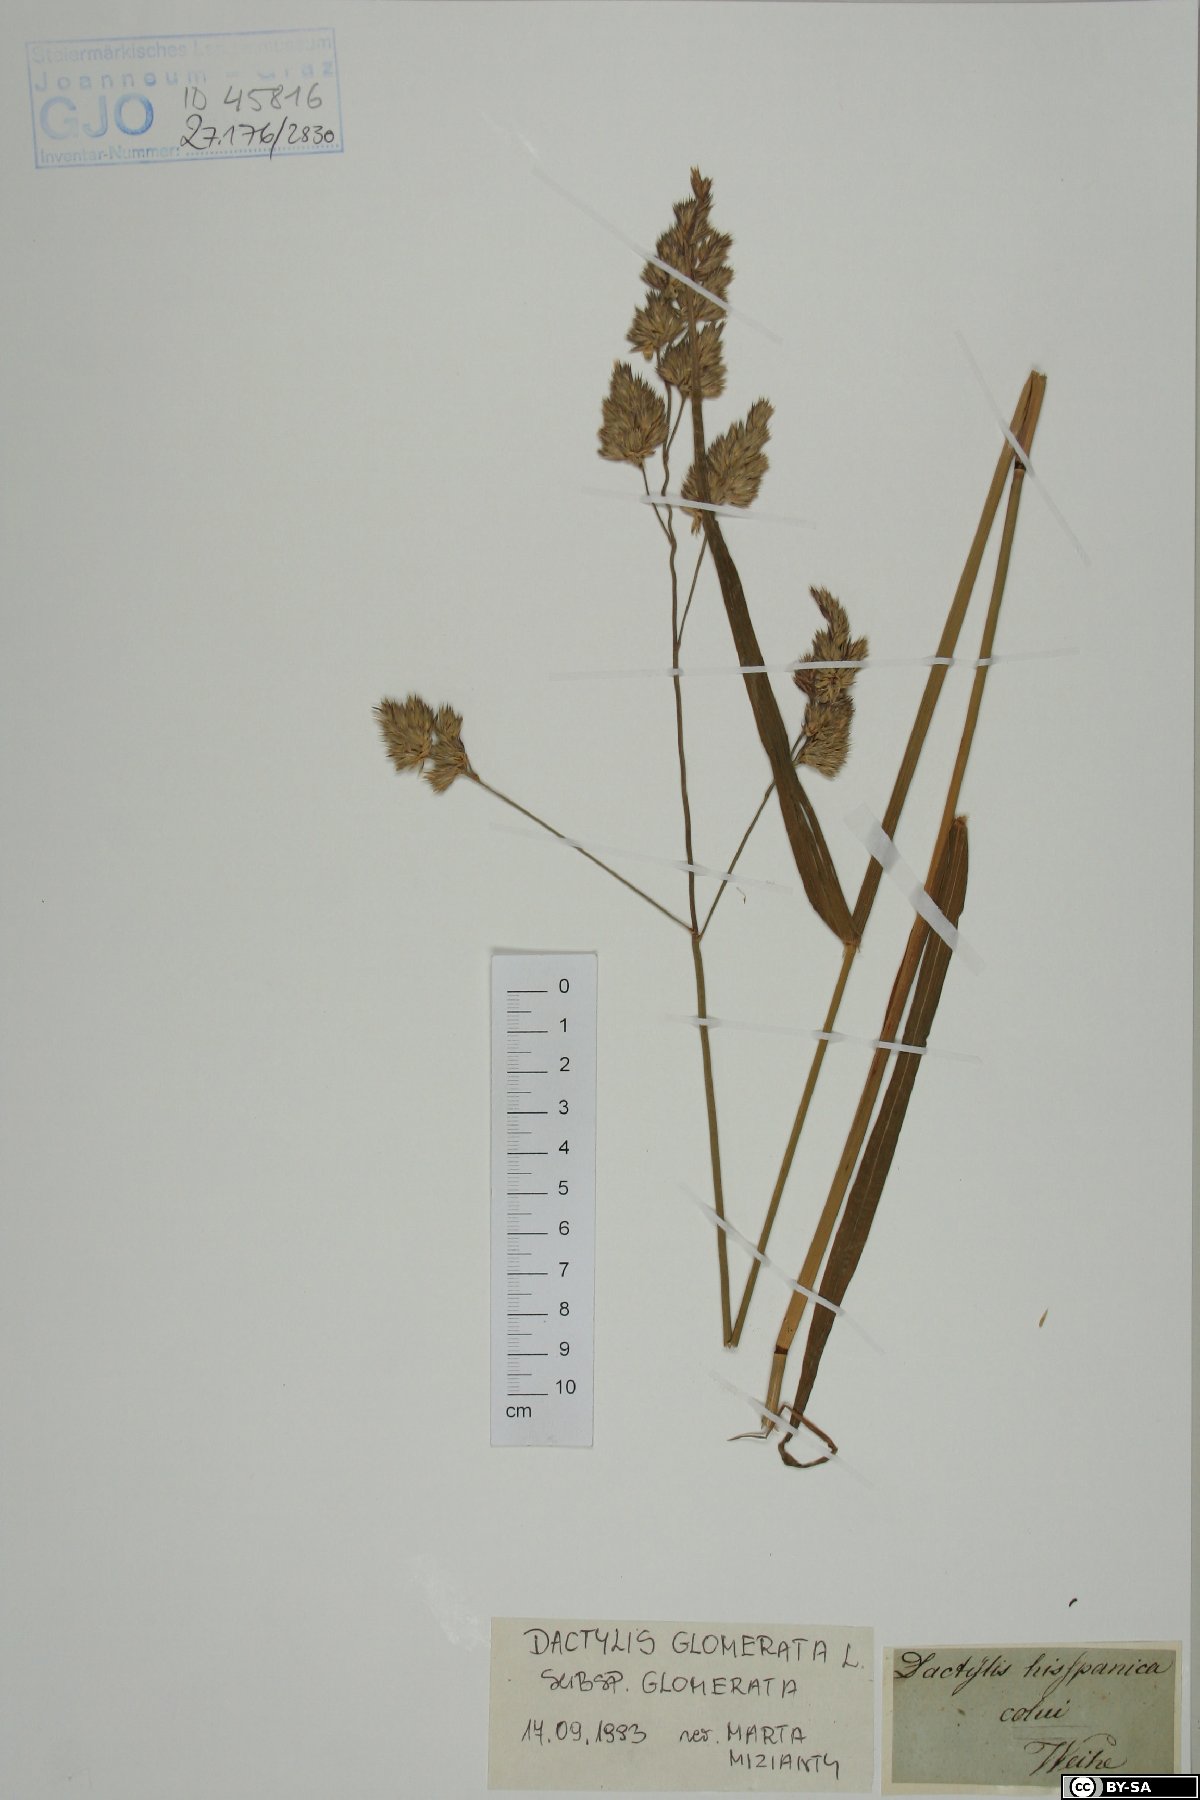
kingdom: Plantae
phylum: Tracheophyta
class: Liliopsida
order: Poales
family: Poaceae
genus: Dactylis
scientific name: Dactylis glomerata
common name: Orchardgrass
